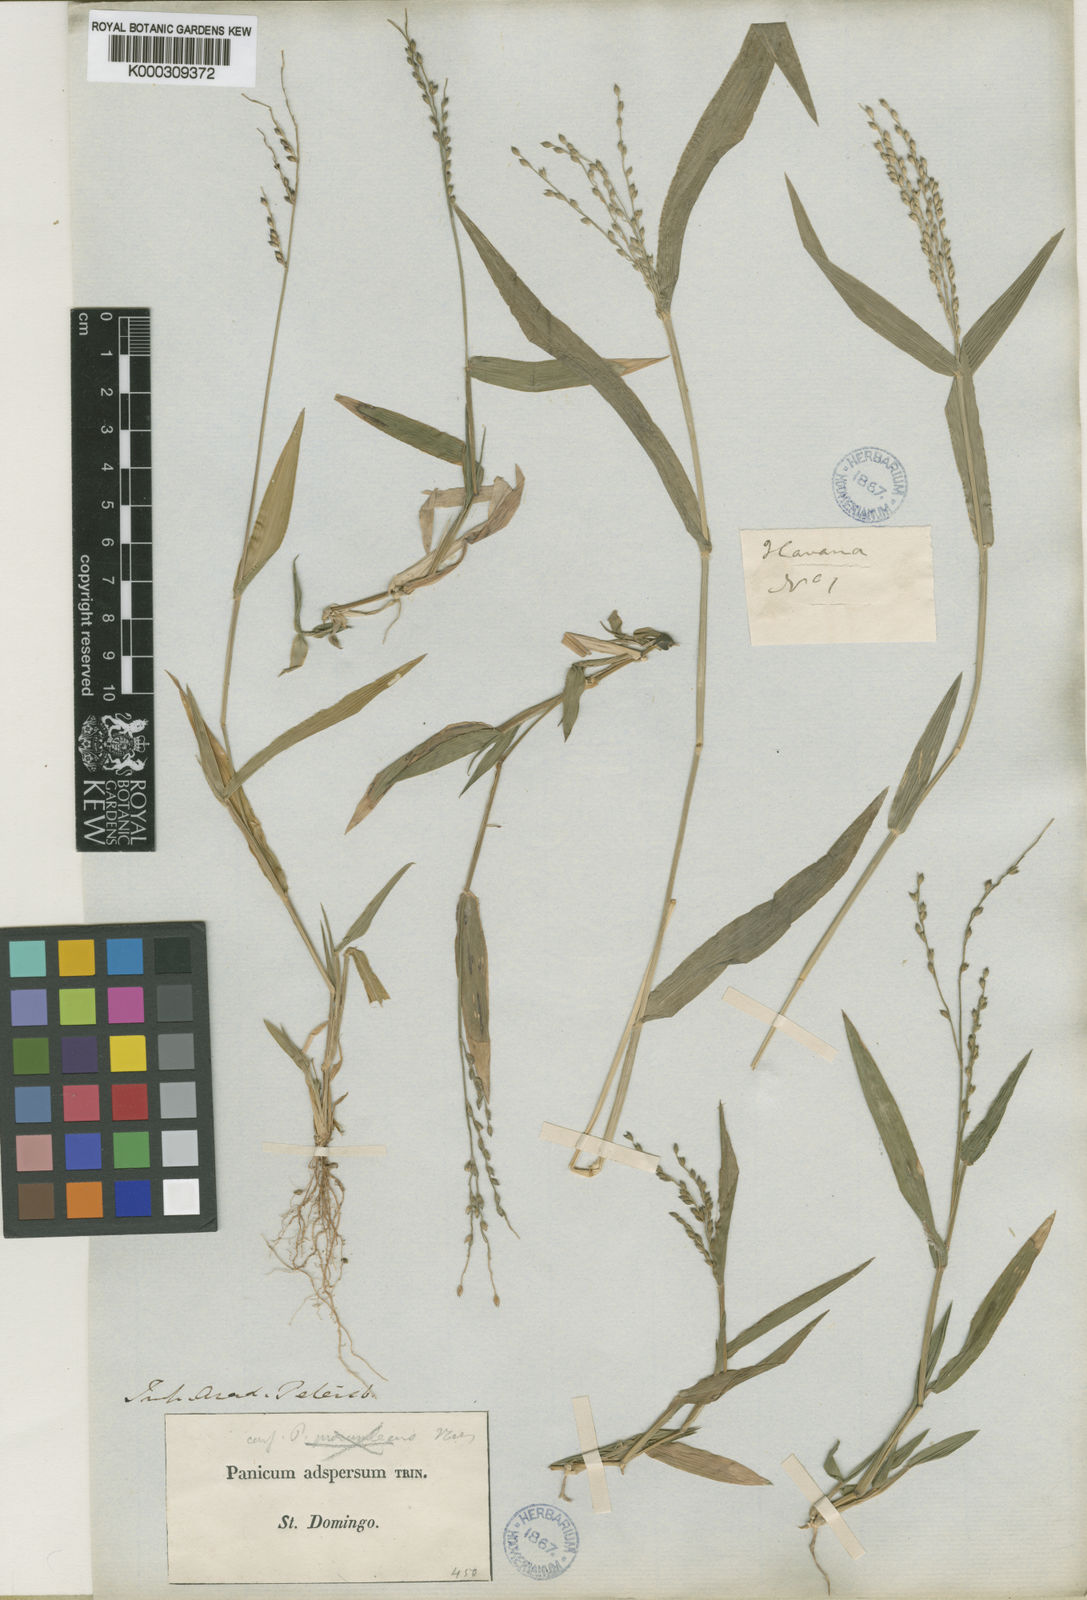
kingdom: Plantae
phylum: Tracheophyta
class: Liliopsida
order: Poales
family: Poaceae
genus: Urochloa
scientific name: Urochloa adspersa
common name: Dominican signal grass
